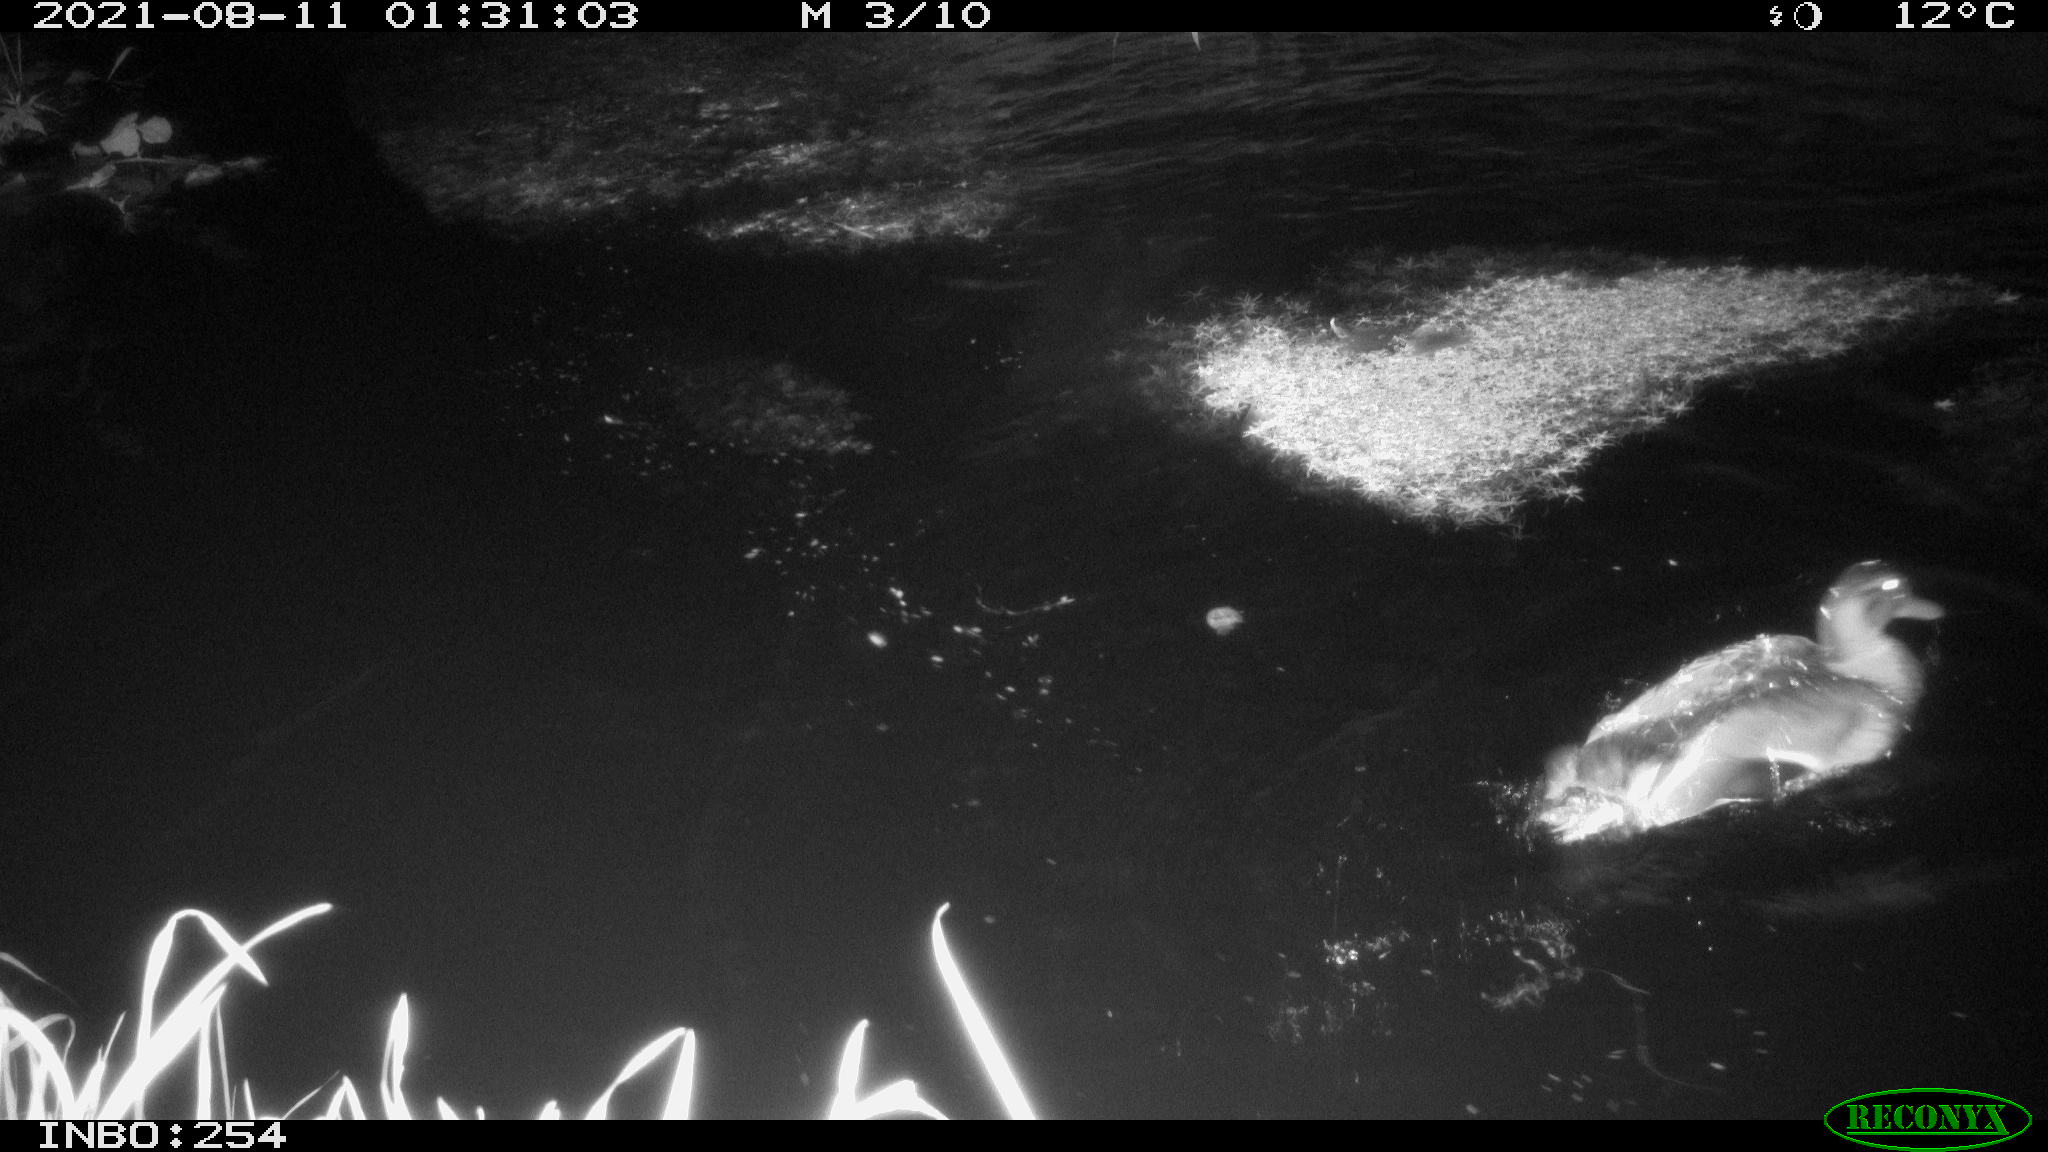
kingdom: Animalia
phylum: Chordata
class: Aves
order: Anseriformes
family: Anatidae
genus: Anas
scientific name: Anas platyrhynchos
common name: Mallard
